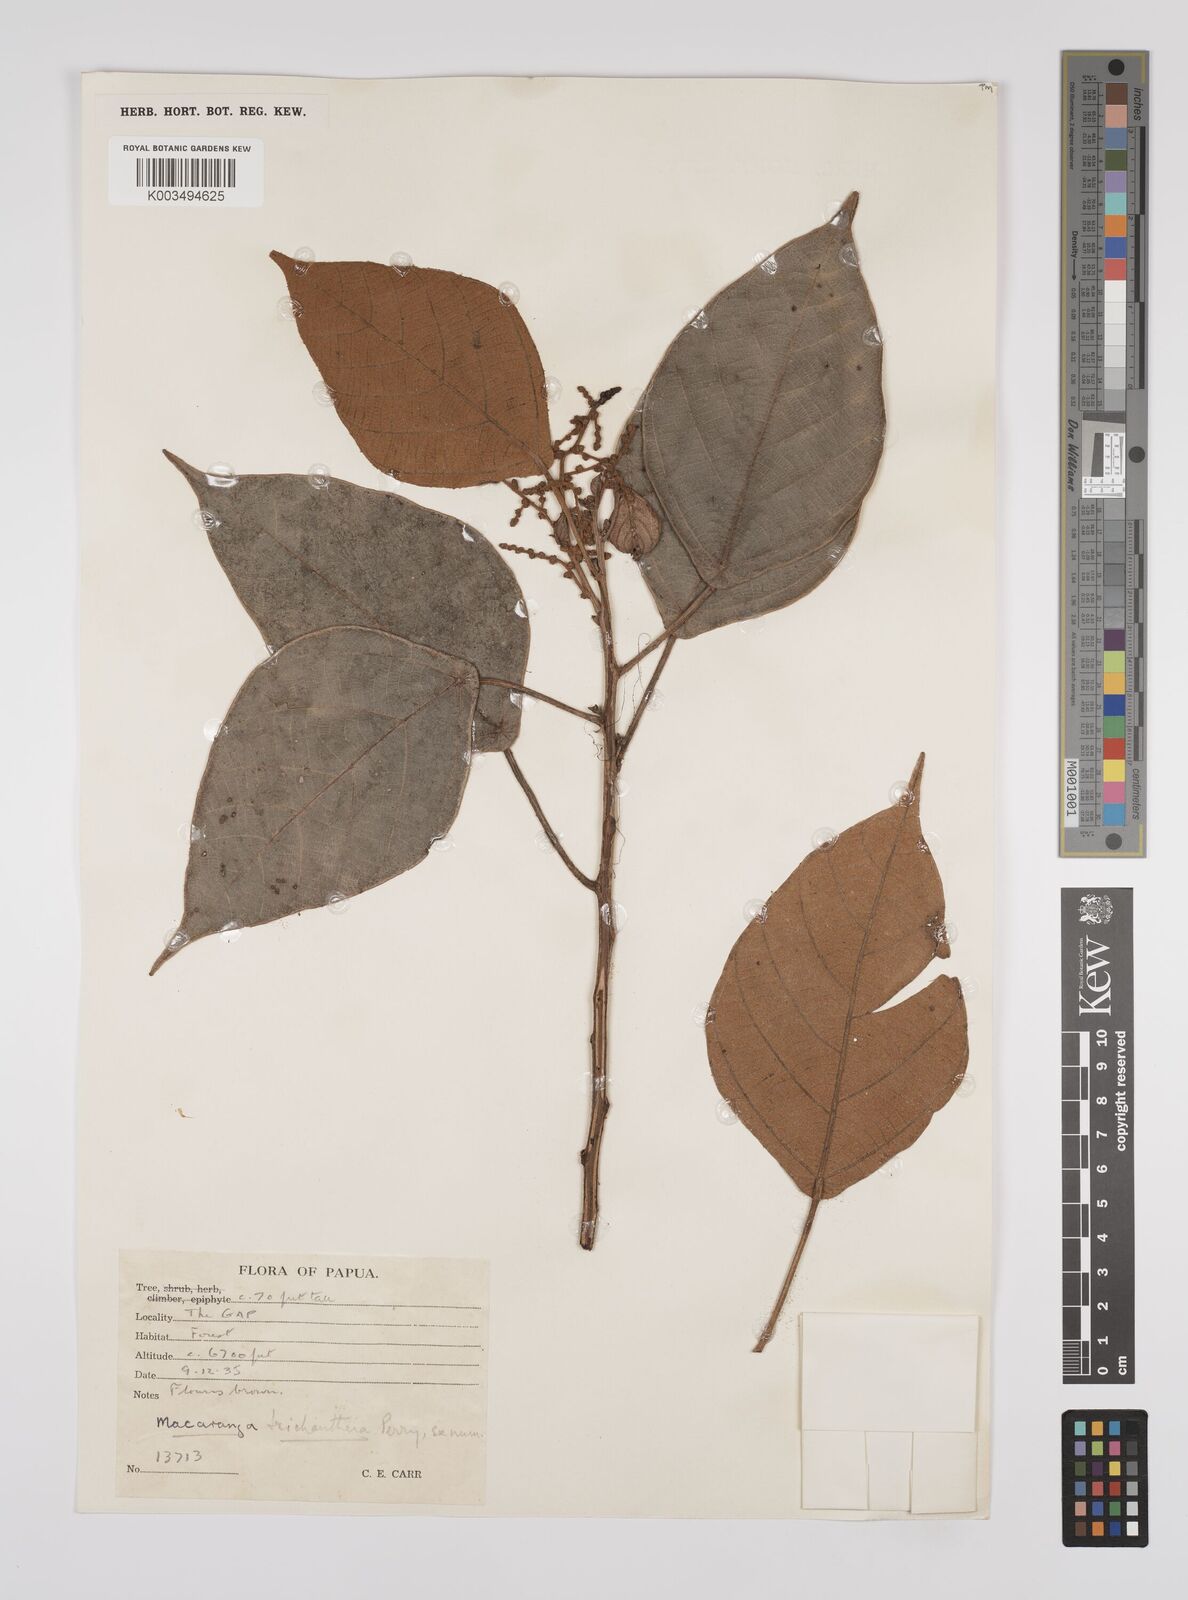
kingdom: Plantae
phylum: Tracheophyta
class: Magnoliopsida
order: Malpighiales
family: Euphorbiaceae
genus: Macaranga
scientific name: Macaranga trichanthera
